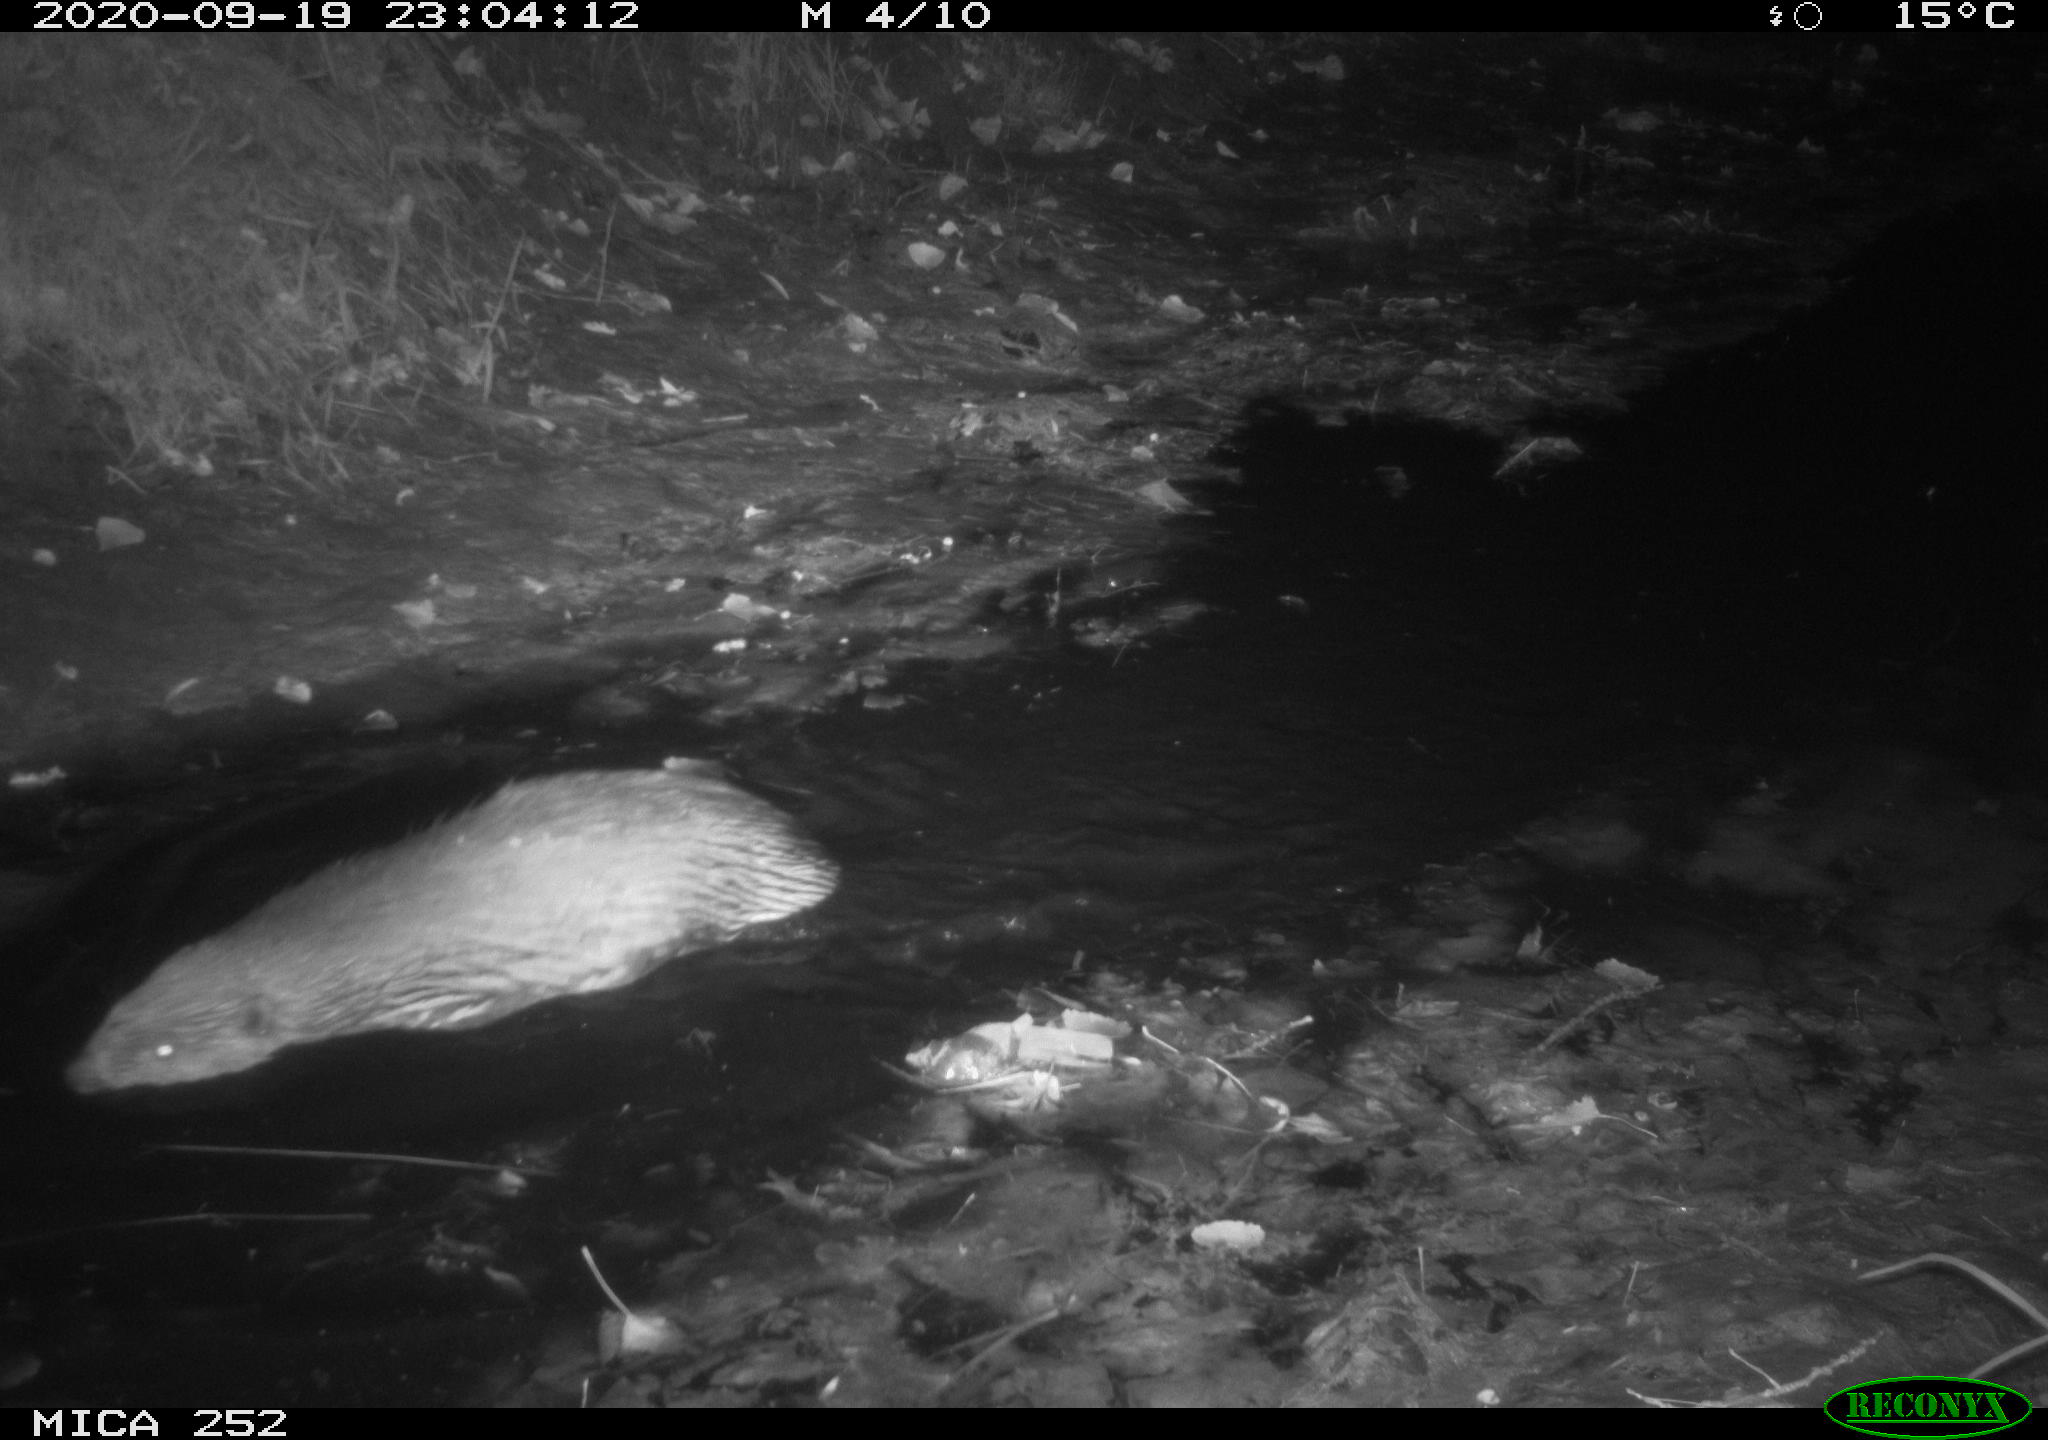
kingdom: Animalia
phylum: Chordata
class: Mammalia
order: Rodentia
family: Castoridae
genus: Castor
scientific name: Castor fiber
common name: Eurasian beaver
